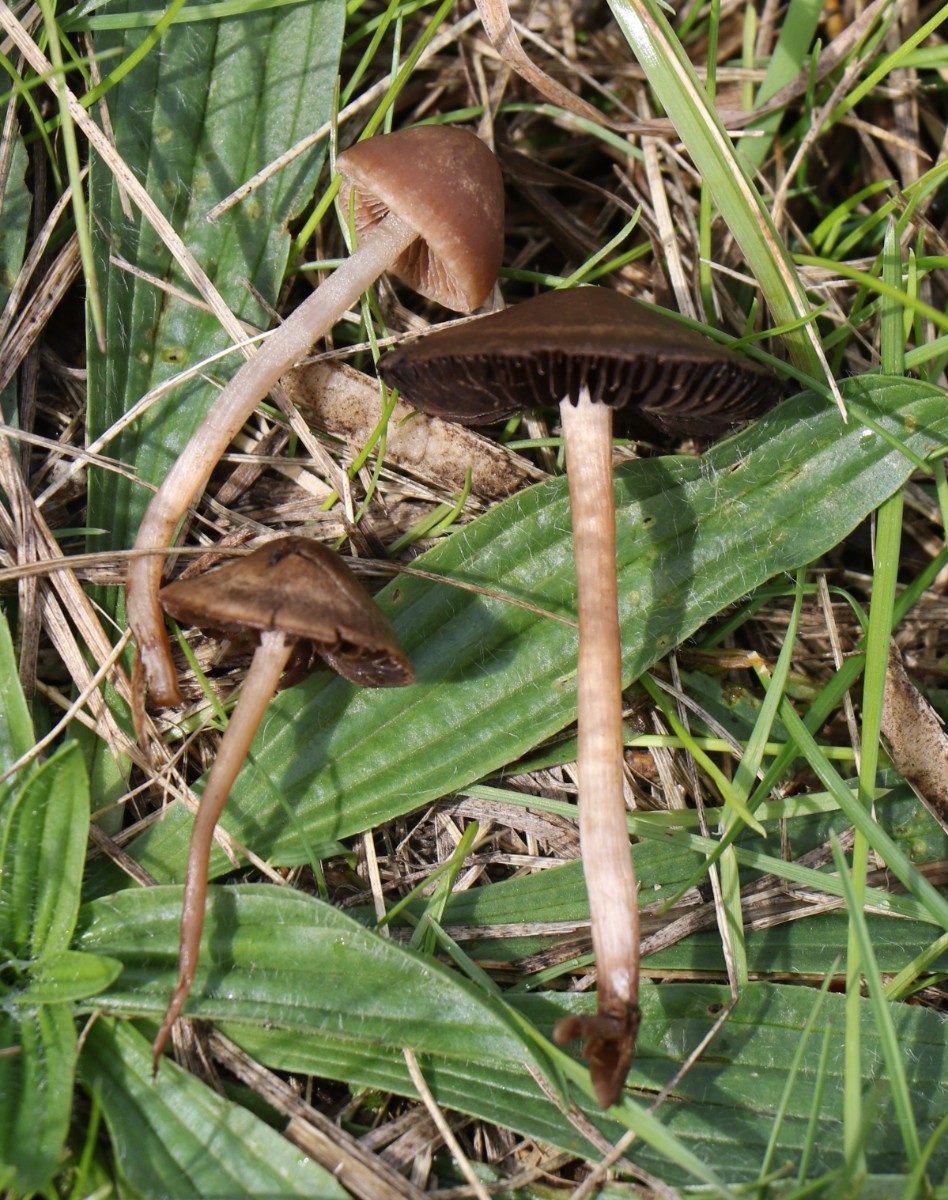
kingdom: Fungi
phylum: Basidiomycota
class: Agaricomycetes
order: Agaricales
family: Bolbitiaceae
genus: Panaeolina
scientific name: Panaeolina foenisecii
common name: høslætsvamp
